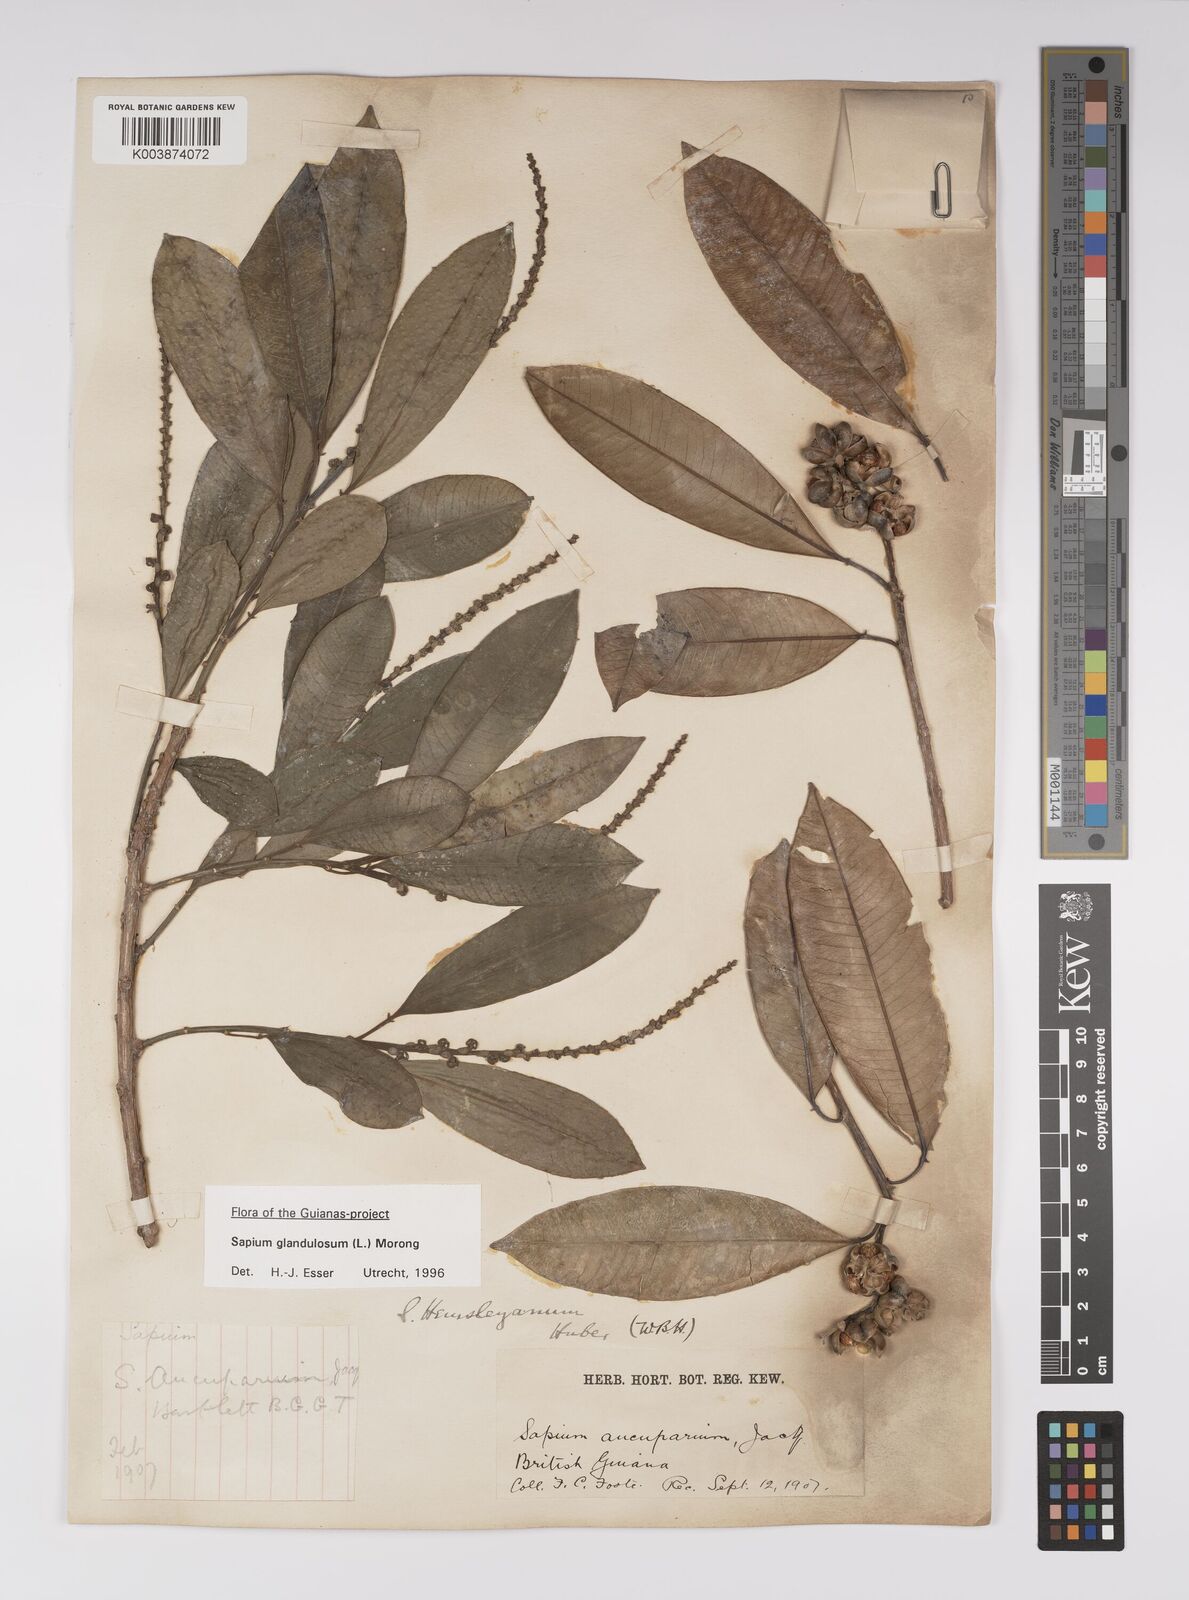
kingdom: Plantae
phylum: Tracheophyta
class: Magnoliopsida
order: Malpighiales
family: Euphorbiaceae
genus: Sapium
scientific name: Sapium glandulosum
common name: Milktree
